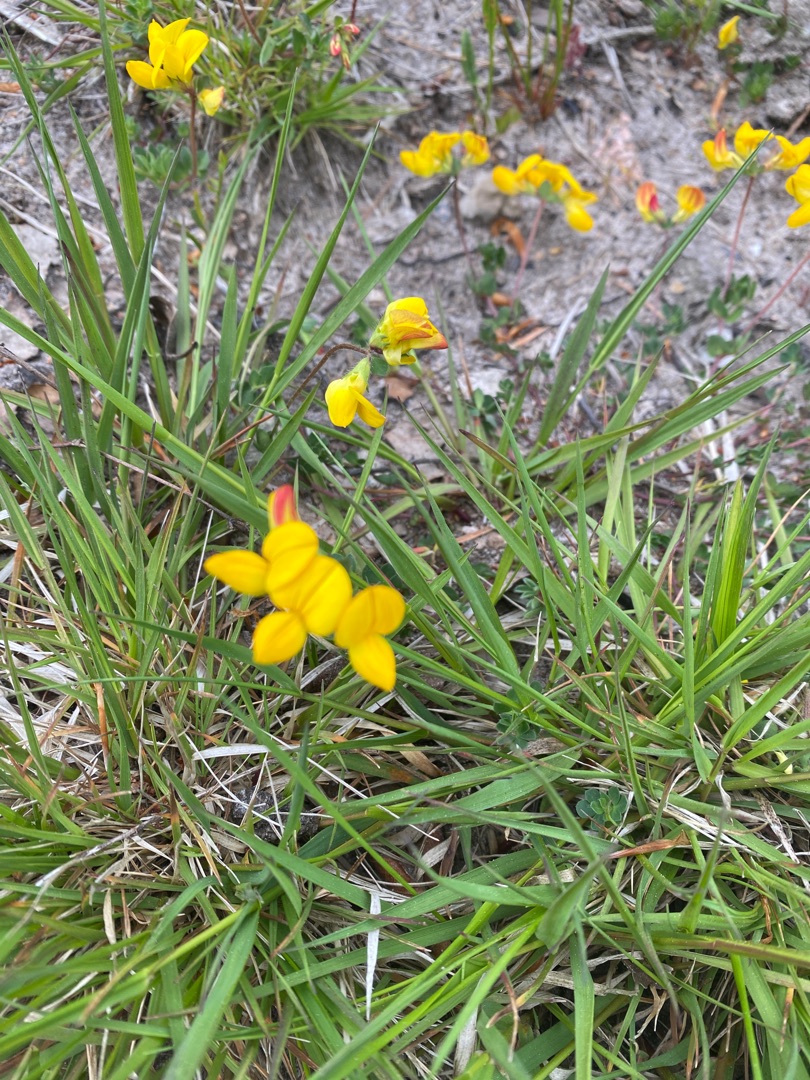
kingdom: Plantae
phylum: Tracheophyta
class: Magnoliopsida
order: Fabales
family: Fabaceae
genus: Lotus
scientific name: Lotus corniculatus
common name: Almindelig kællingetand
